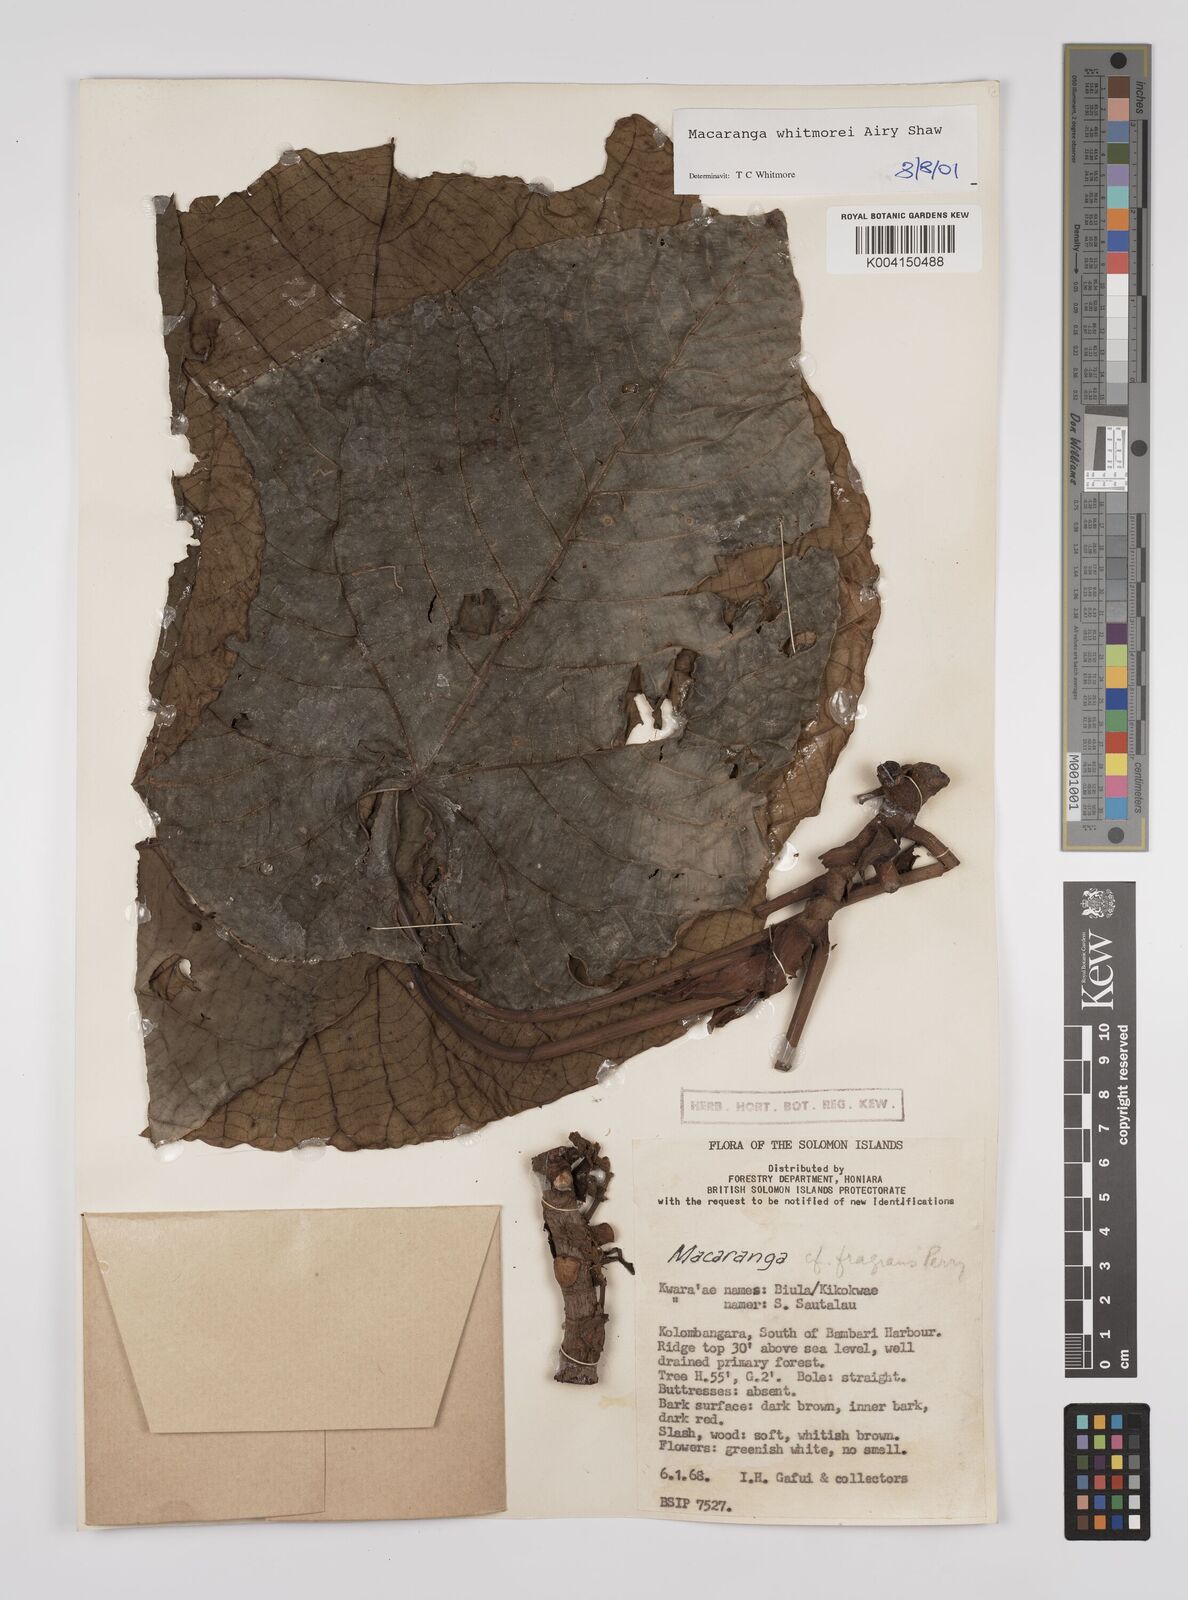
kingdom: Plantae
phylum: Tracheophyta
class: Magnoliopsida
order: Malpighiales
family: Euphorbiaceae
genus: Macaranga
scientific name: Macaranga magnifolia
